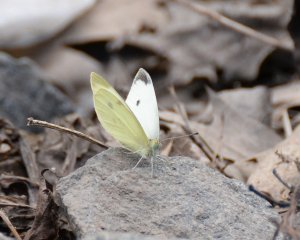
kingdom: Animalia
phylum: Arthropoda
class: Insecta
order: Lepidoptera
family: Pieridae
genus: Pieris
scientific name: Pieris rapae
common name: Cabbage White
